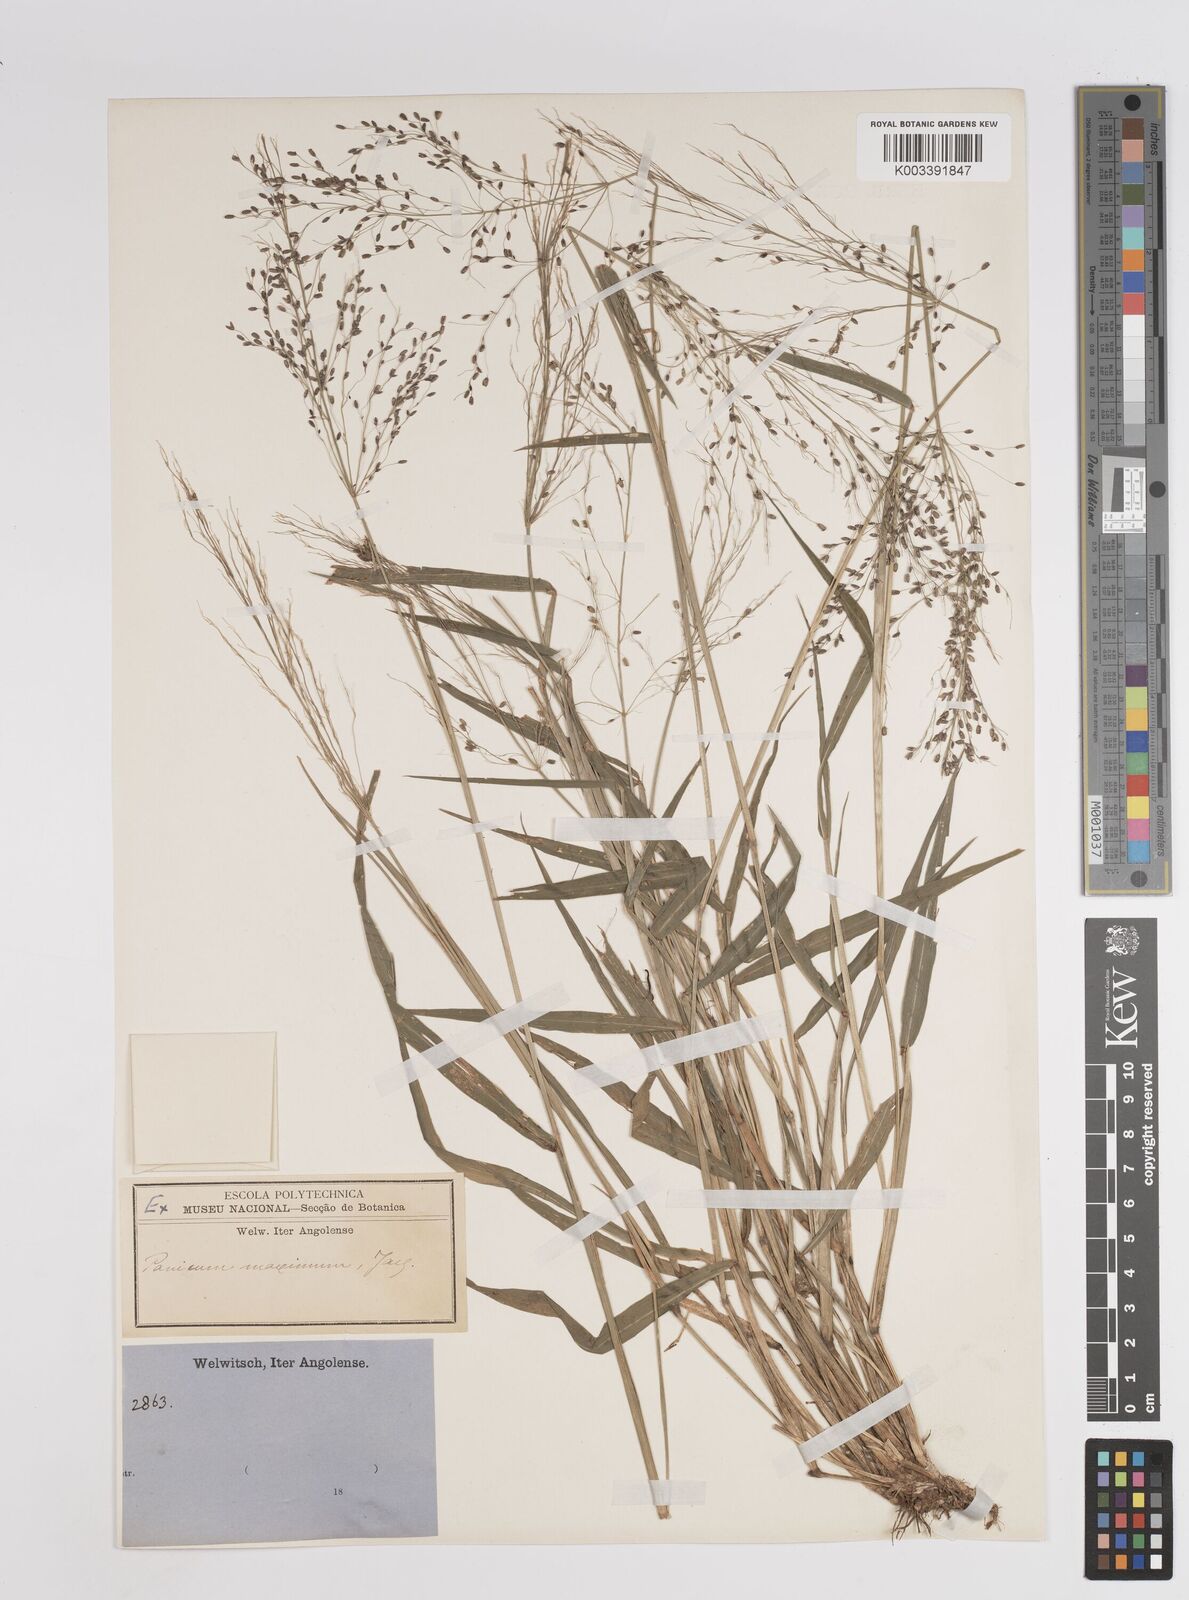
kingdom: Plantae
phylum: Tracheophyta
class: Liliopsida
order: Poales
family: Poaceae
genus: Megathyrsus
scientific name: Megathyrsus maximus
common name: Guineagrass
